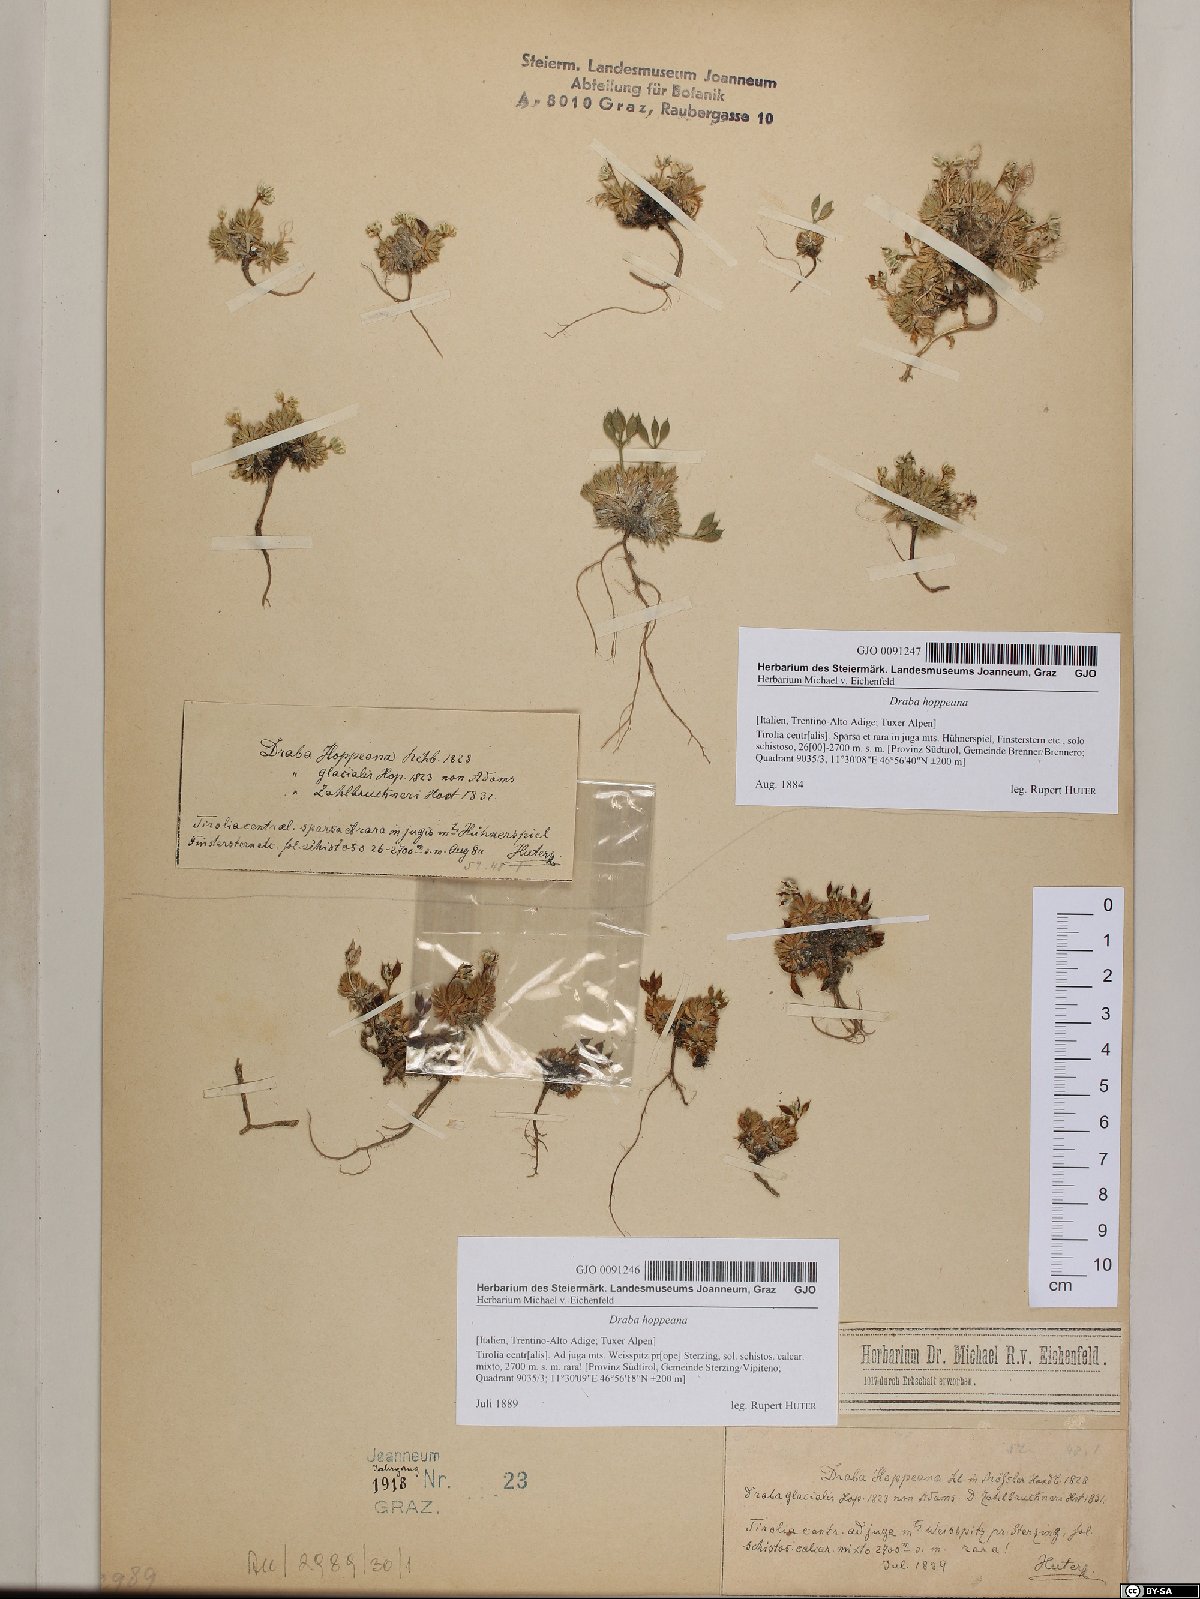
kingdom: Plantae
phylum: Tracheophyta
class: Magnoliopsida
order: Brassicales
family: Brassicaceae
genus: Draba
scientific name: Draba hoppeana
